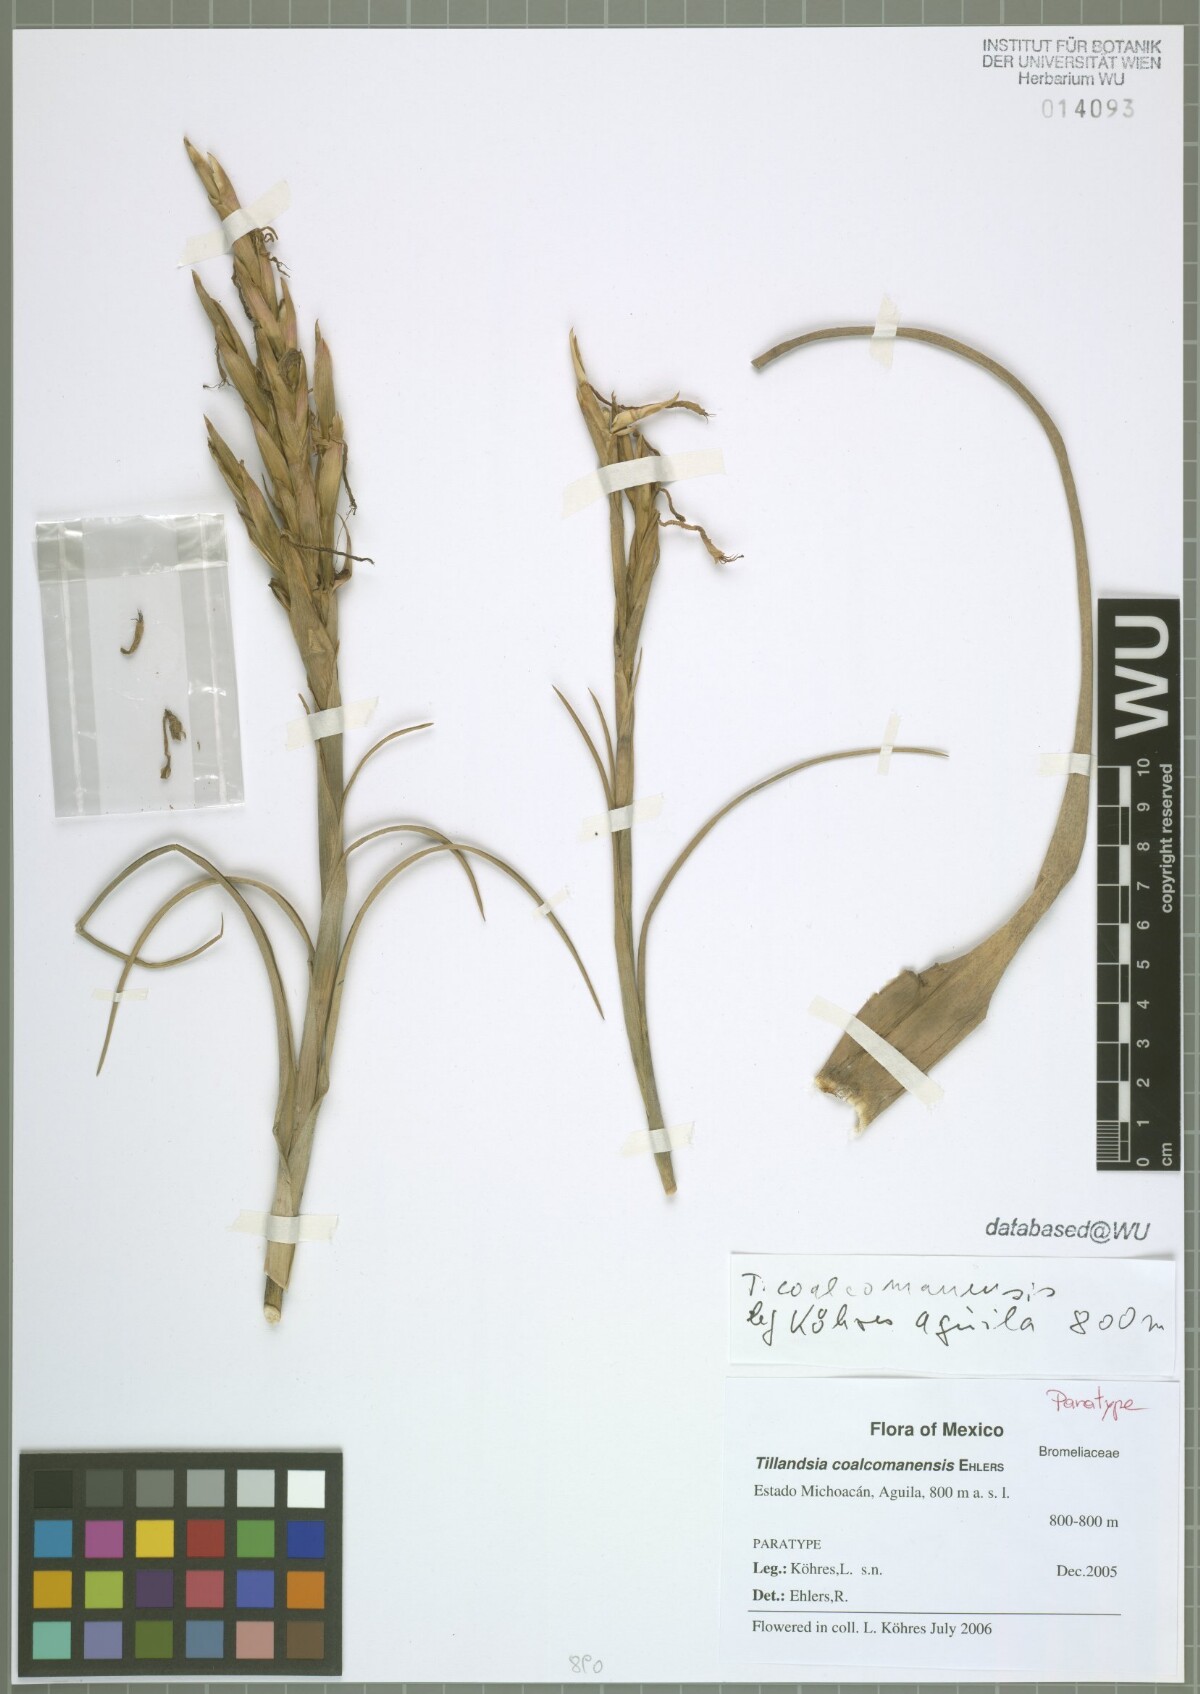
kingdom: Plantae
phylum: Tracheophyta
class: Liliopsida
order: Poales
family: Bromeliaceae
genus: Tillandsia
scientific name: Tillandsia coalcomanensis
